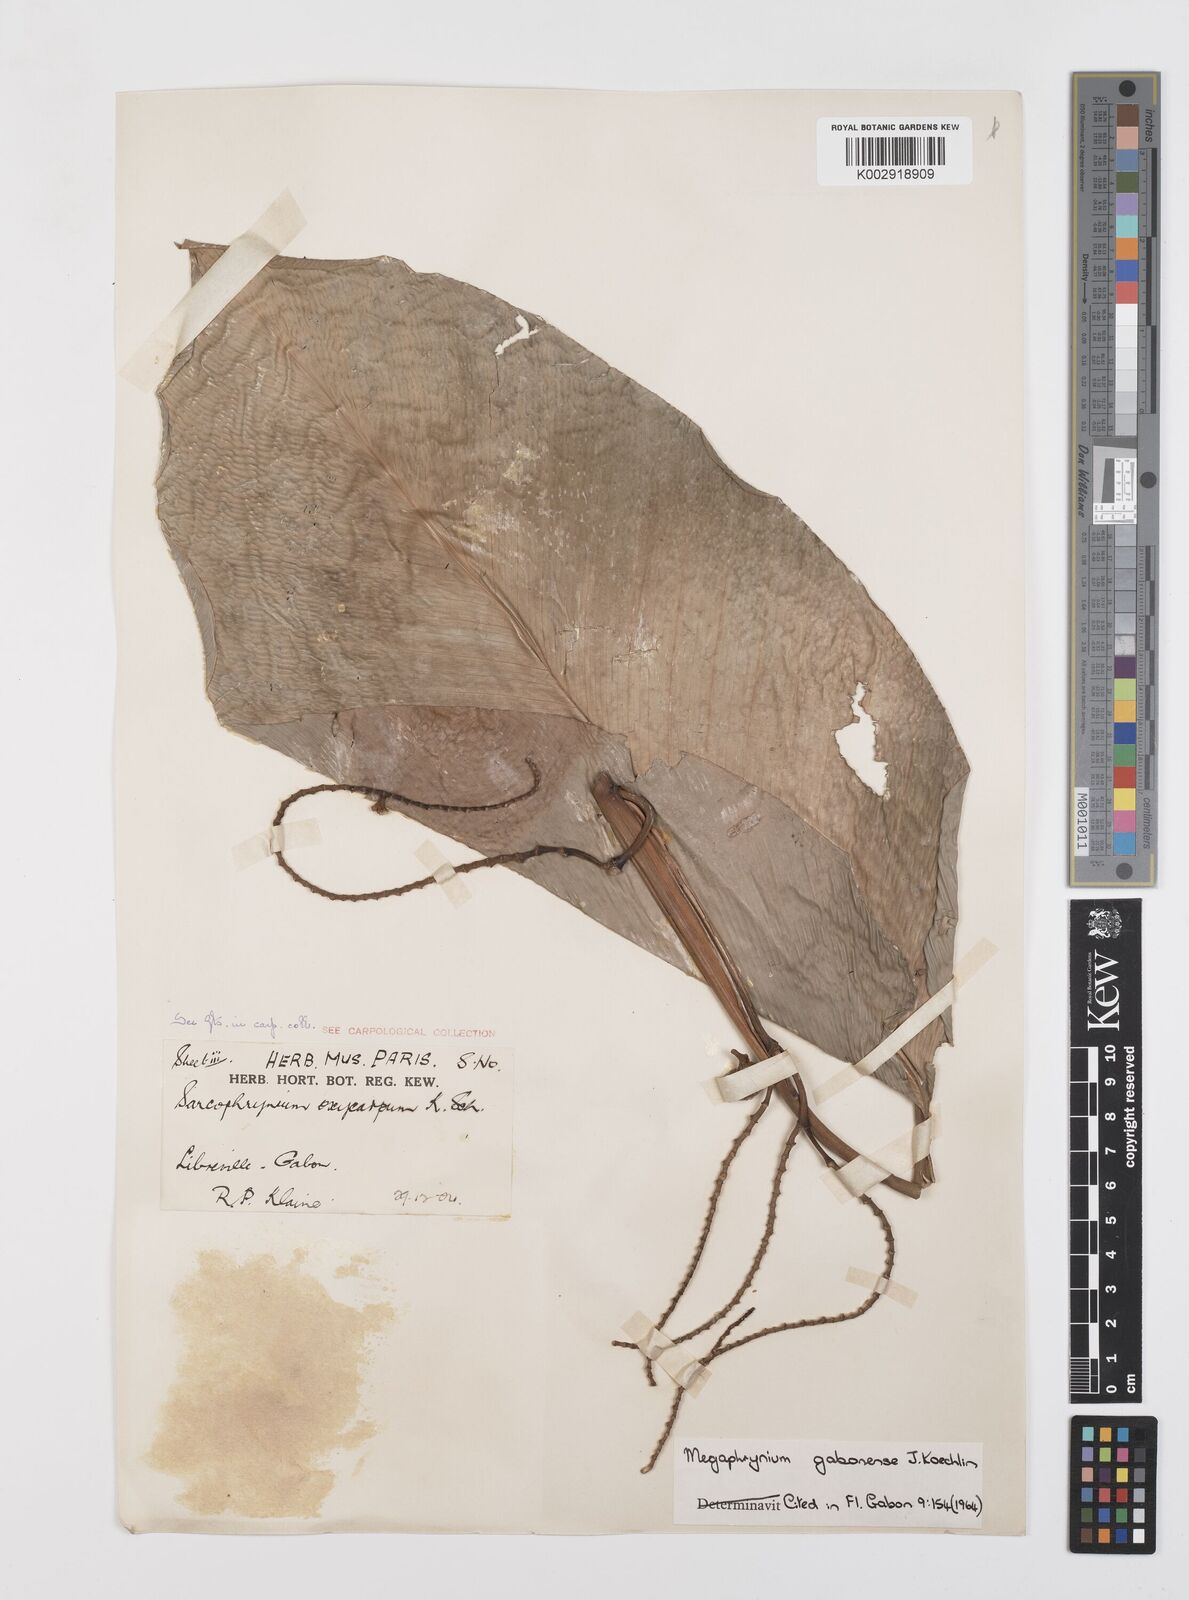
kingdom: Plantae
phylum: Tracheophyta
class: Liliopsida
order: Zingiberales
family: Marantaceae
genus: Megaphrynium
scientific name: Megaphrynium gabonense
